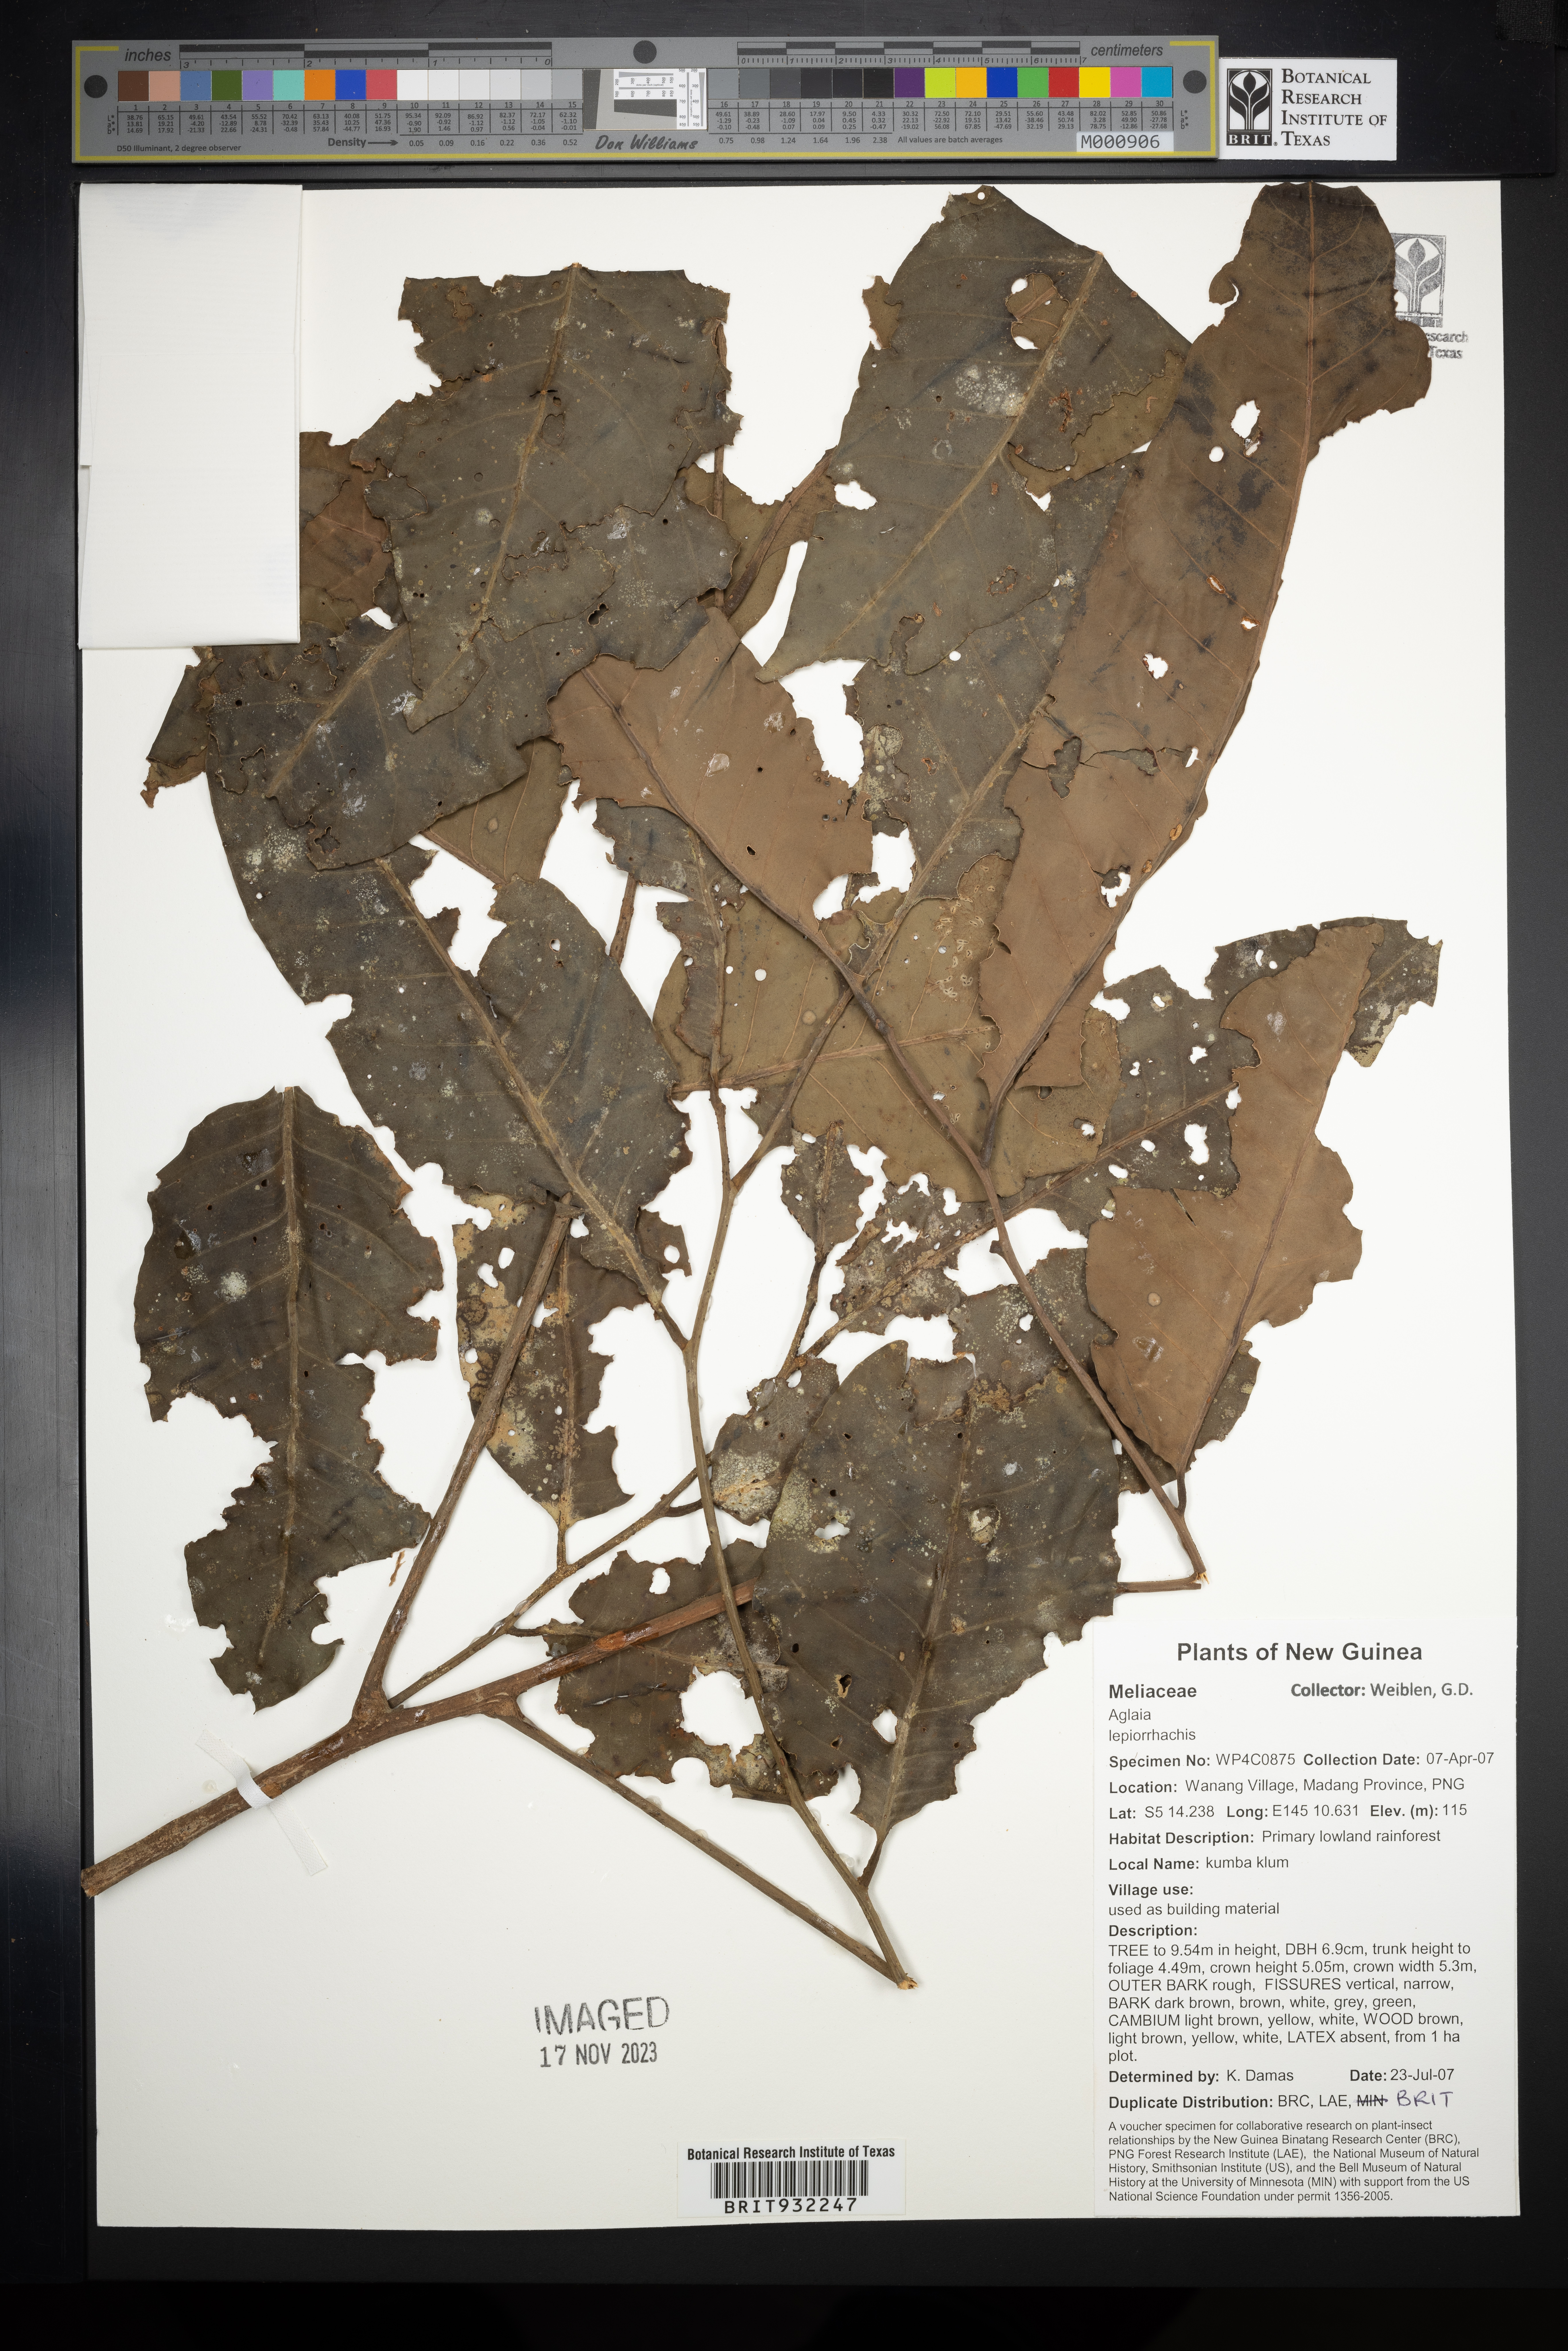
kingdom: Plantae
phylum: Tracheophyta
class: Magnoliopsida
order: Sapindales
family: Meliaceae
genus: Aglaia
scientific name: Aglaia
